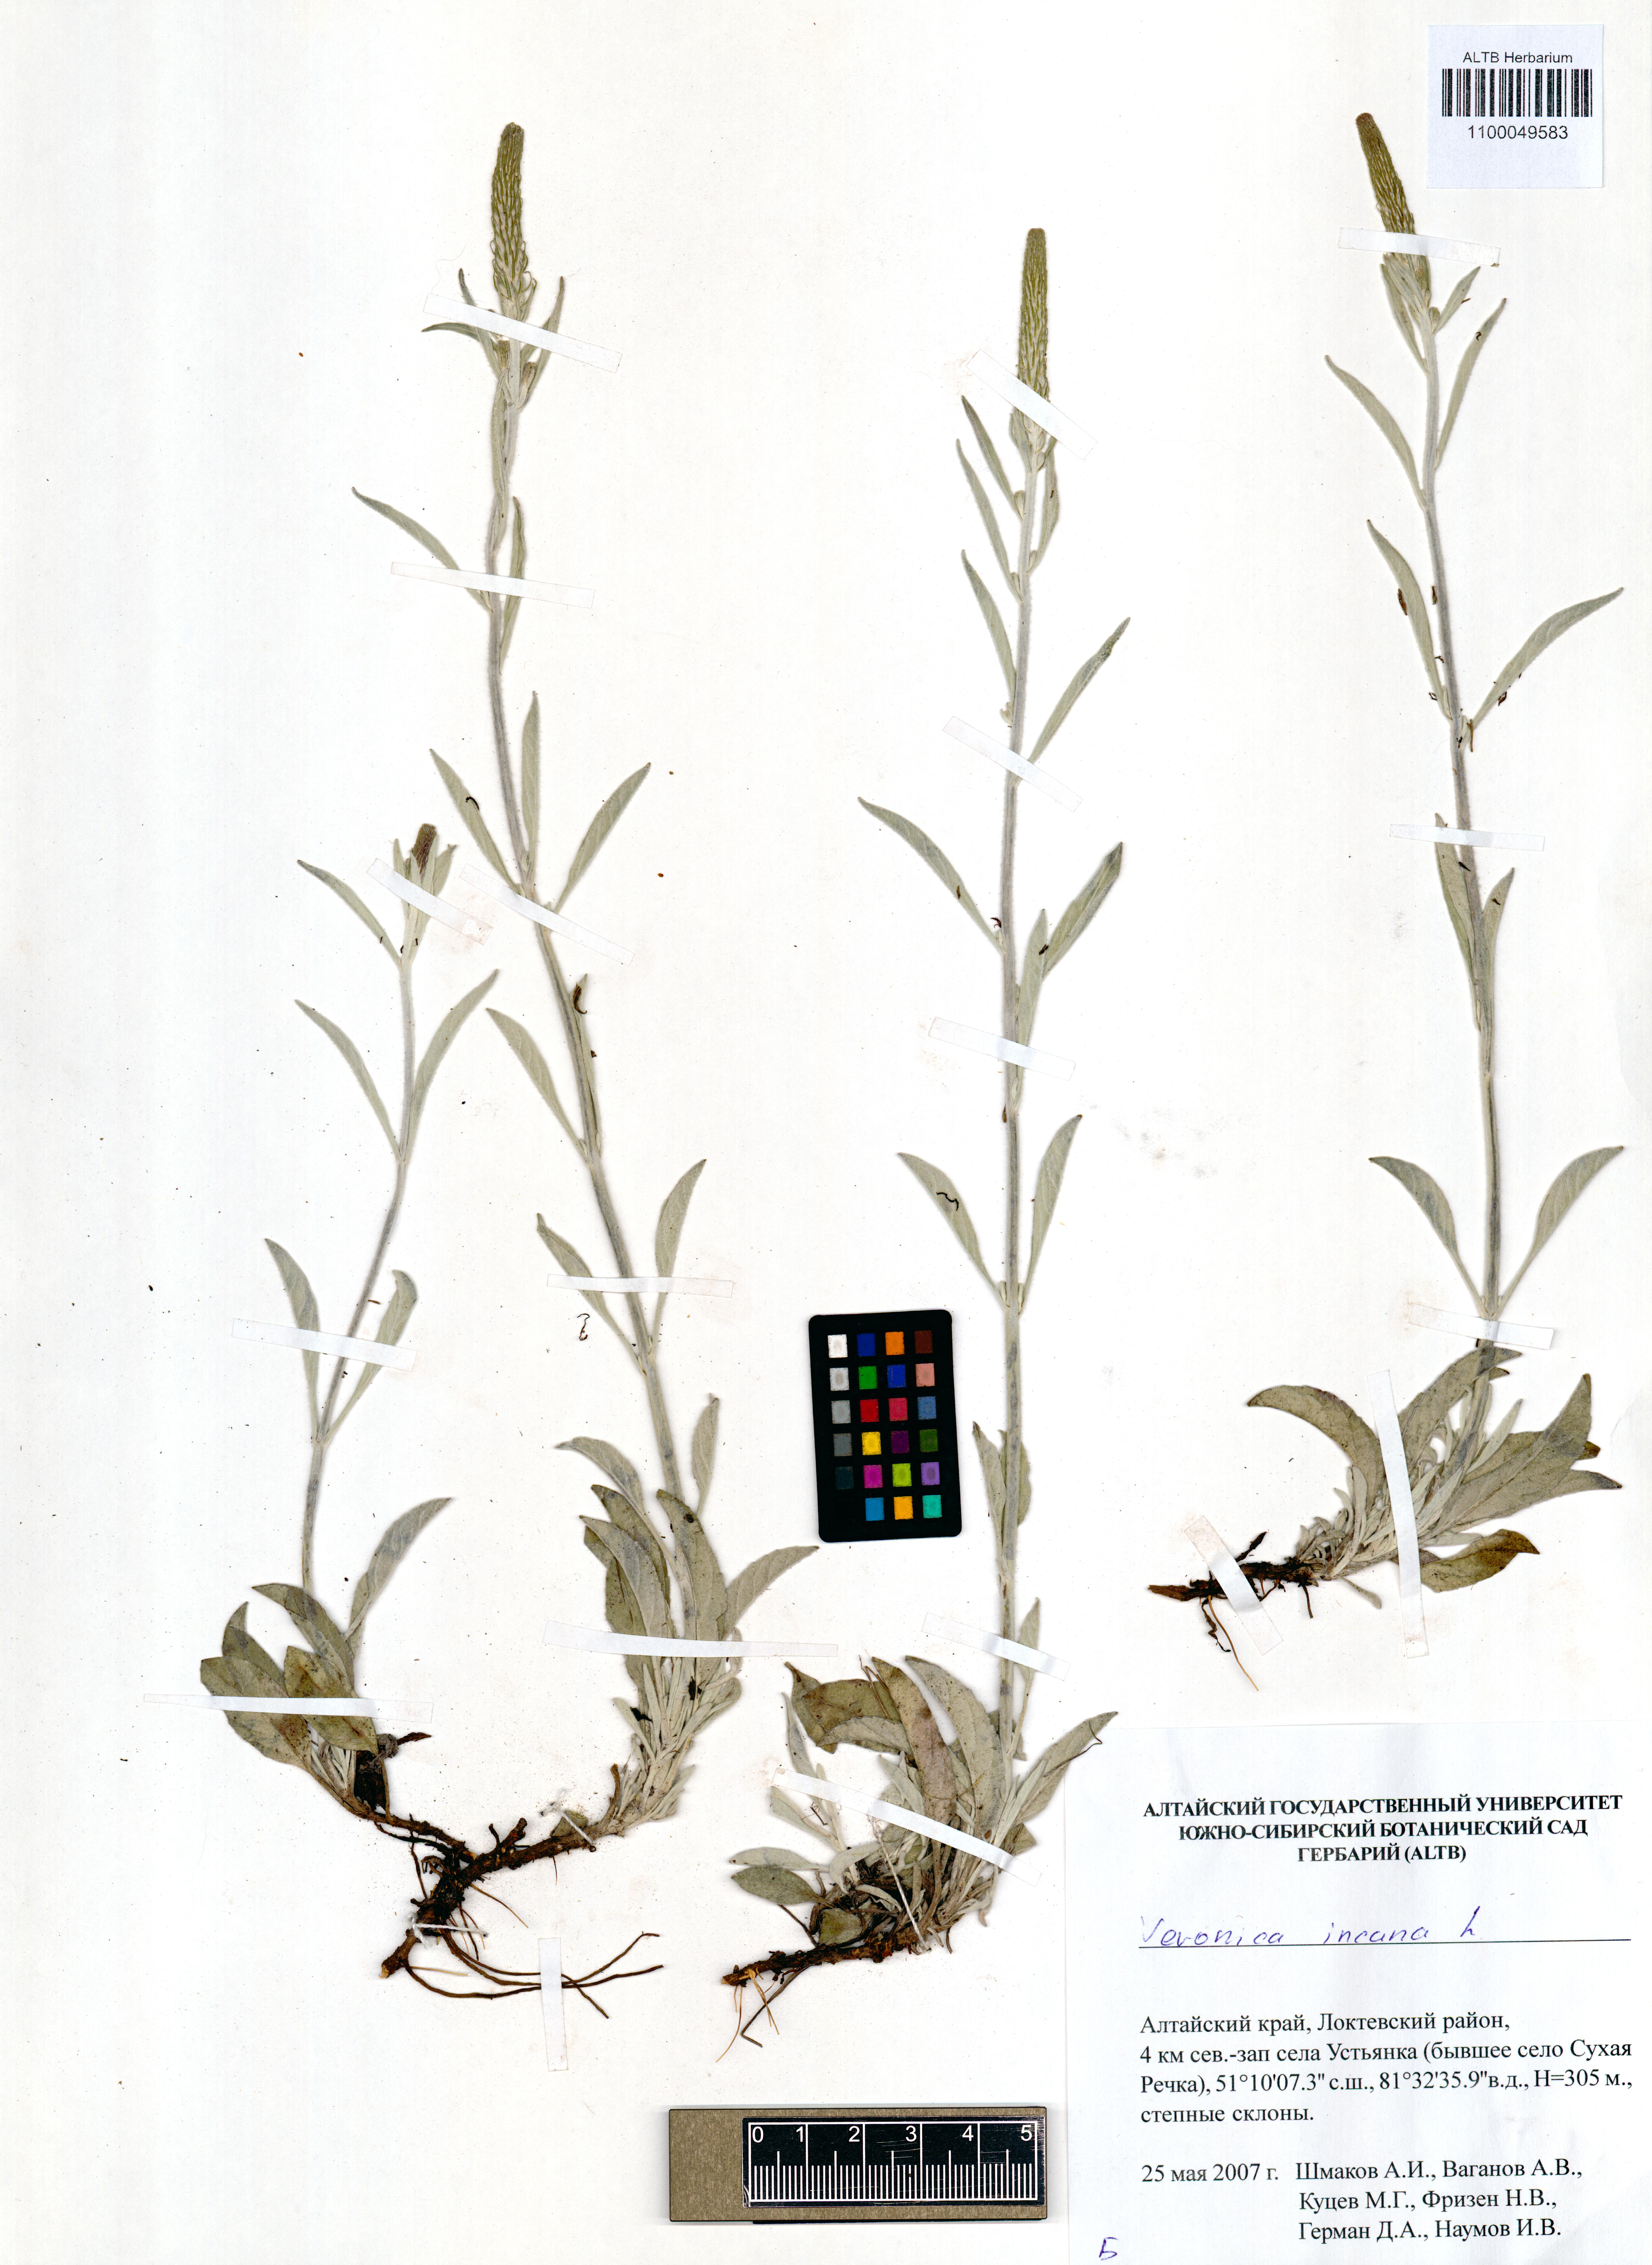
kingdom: Plantae
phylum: Tracheophyta
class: Magnoliopsida
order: Lamiales
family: Plantaginaceae
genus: Veronica
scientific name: Veronica incana
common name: Silver speedwell
